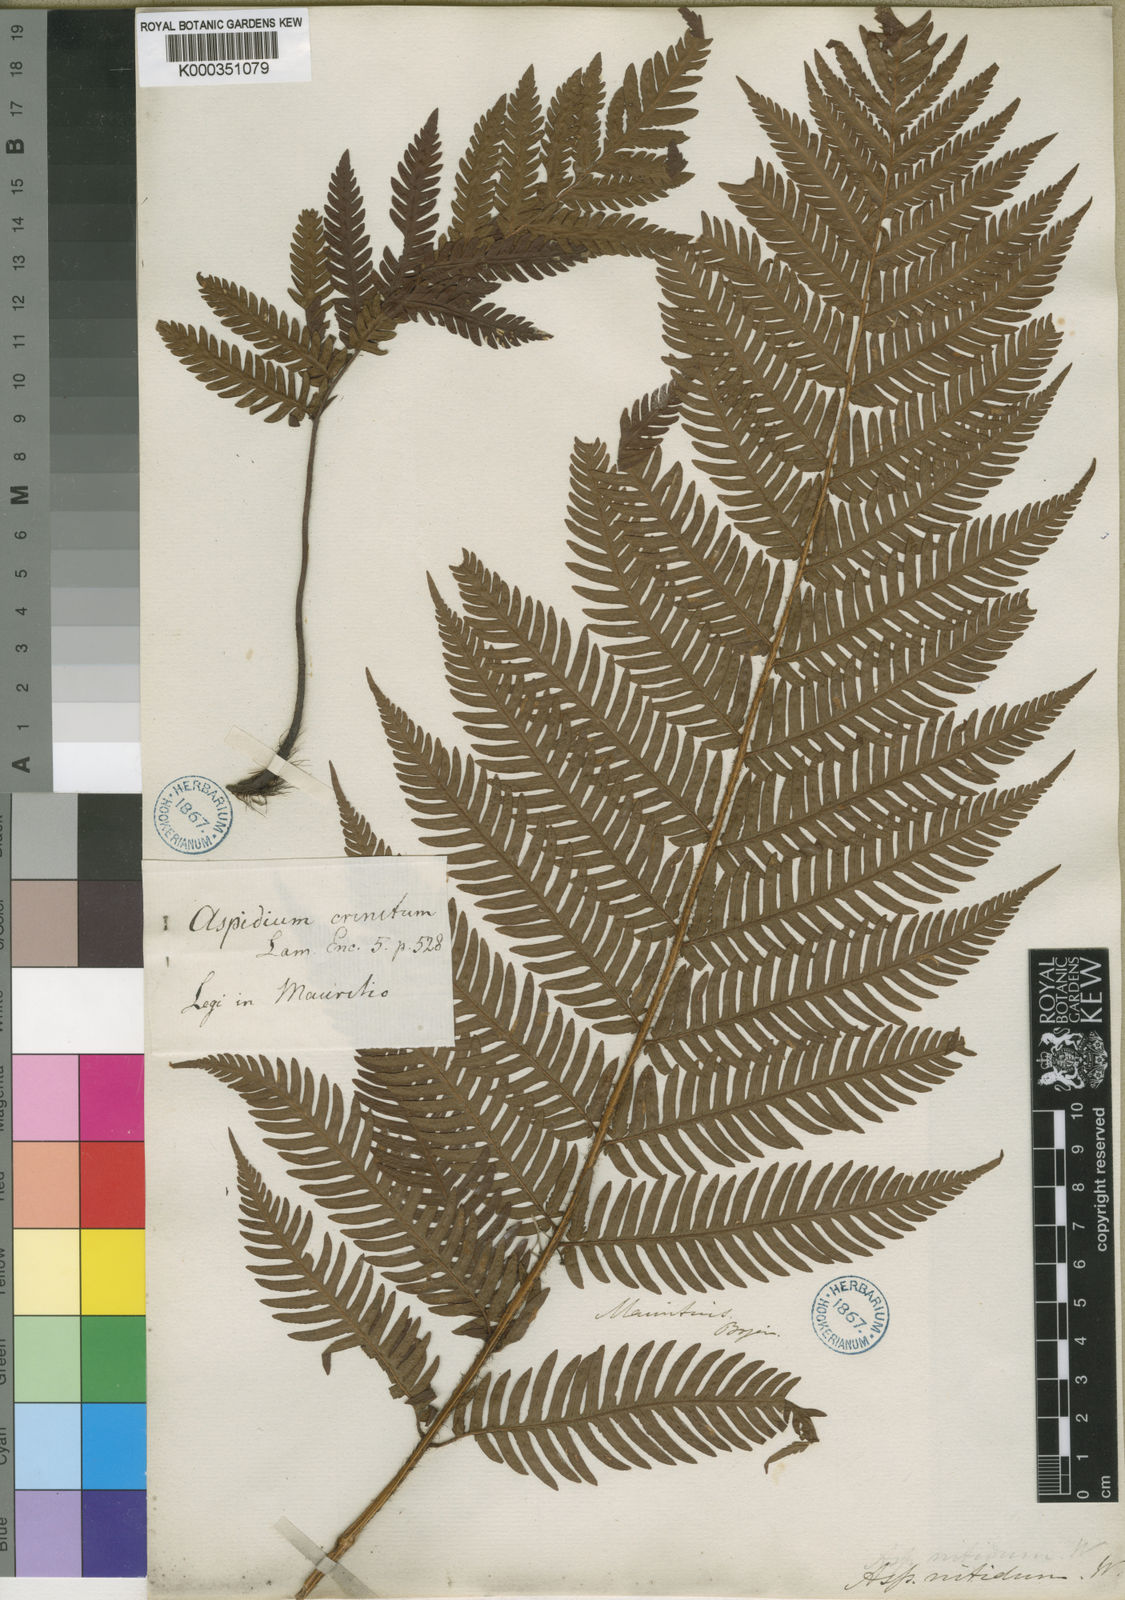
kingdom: Plantae
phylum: Tracheophyta
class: Polypodiopsida
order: Polypodiales
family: Dryopteridaceae
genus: Ctenitis
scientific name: Ctenitis crinita
